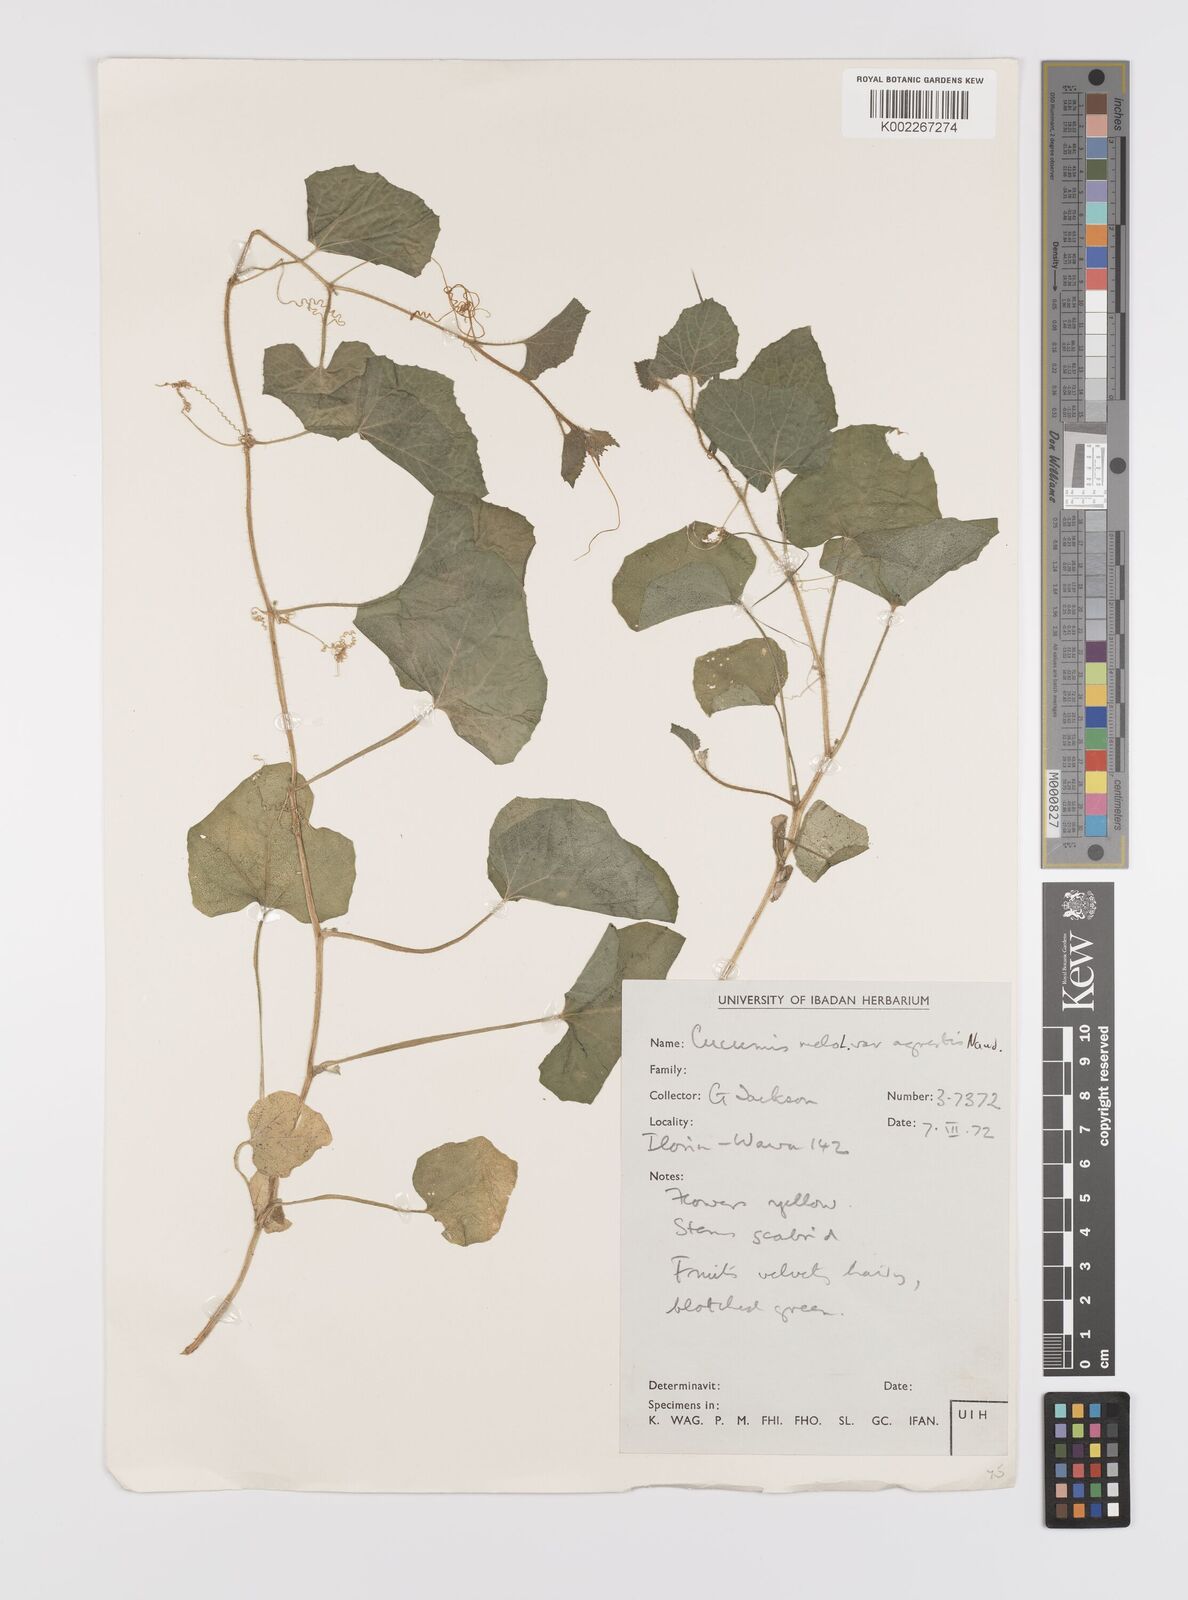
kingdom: Plantae
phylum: Tracheophyta
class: Magnoliopsida
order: Cucurbitales
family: Cucurbitaceae
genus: Cucumis
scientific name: Cucumis melo
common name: Melon
